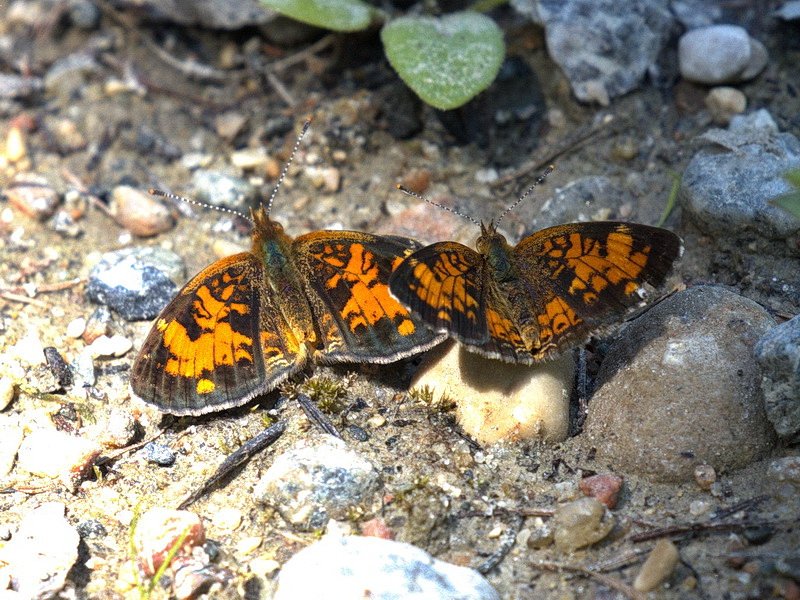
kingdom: Animalia
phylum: Arthropoda
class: Insecta
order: Lepidoptera
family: Nymphalidae
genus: Phyciodes
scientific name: Phyciodes tharos
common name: Northern Crescent
